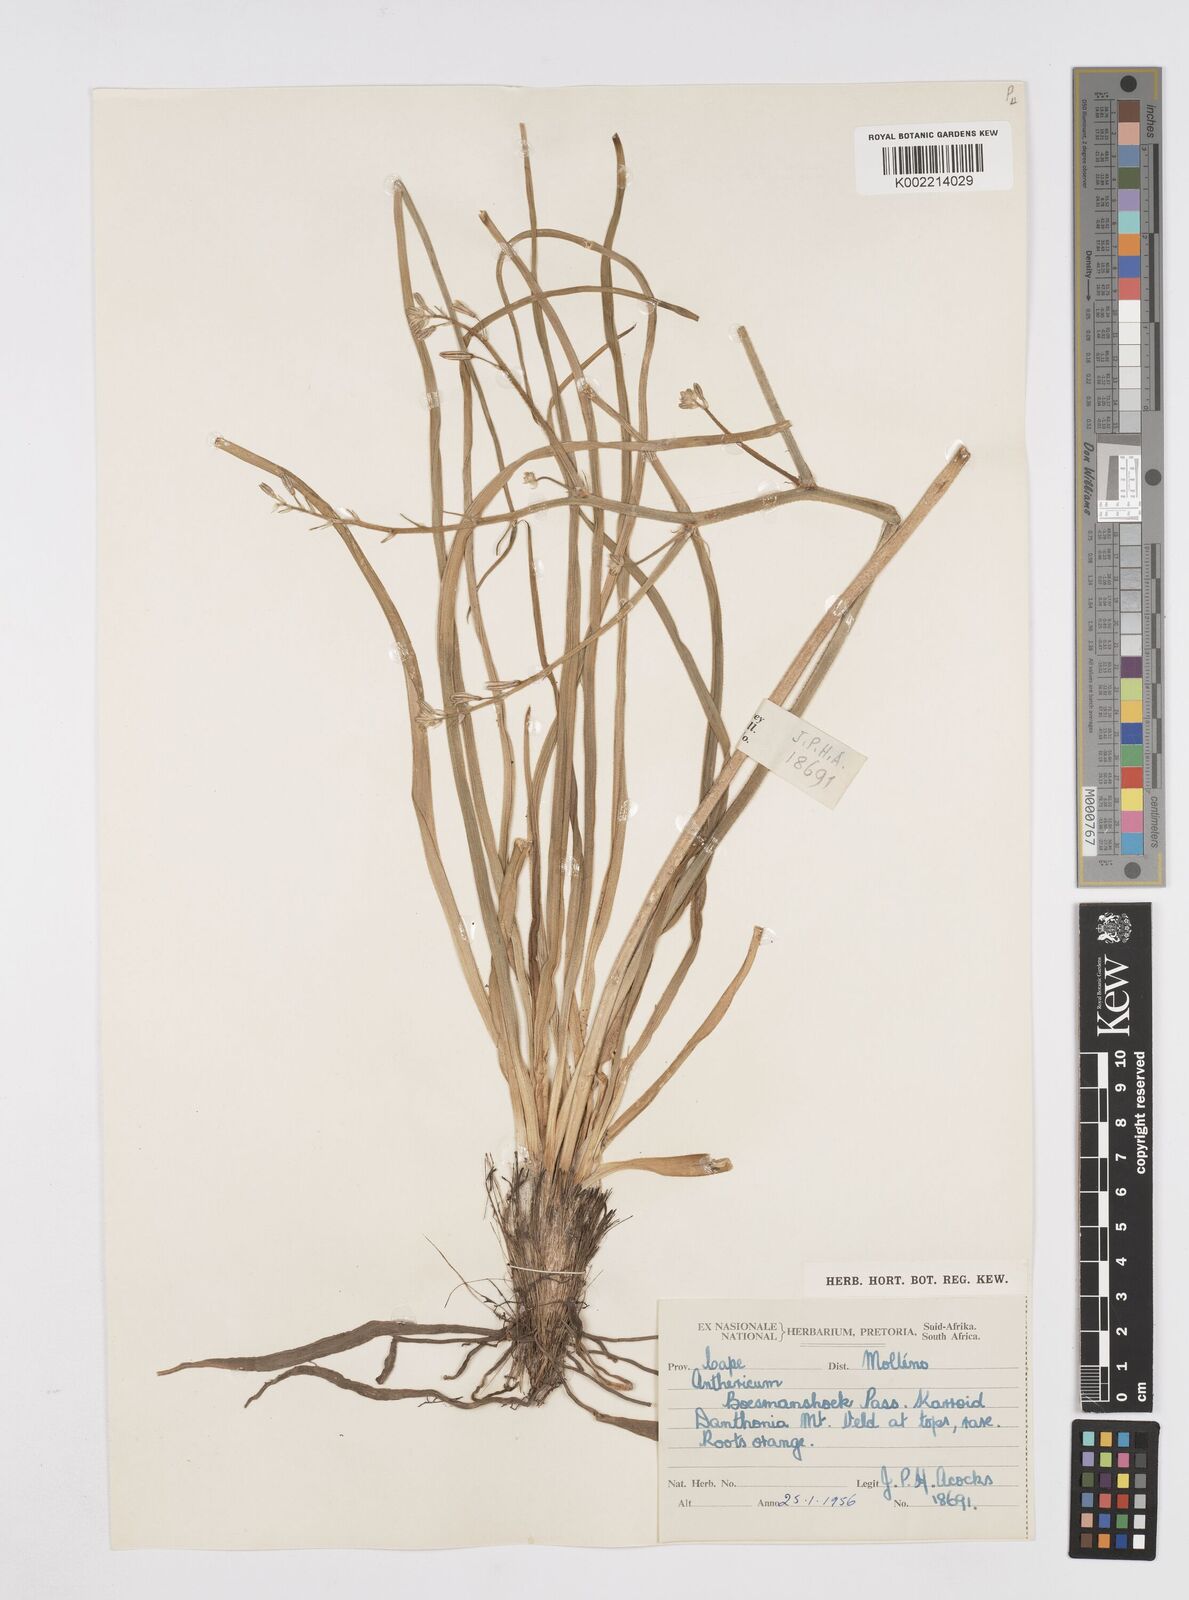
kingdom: Plantae
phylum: Tracheophyta
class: Liliopsida
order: Asparagales
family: Asphodelaceae
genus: Trachyandra
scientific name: Trachyandra gerrardii
